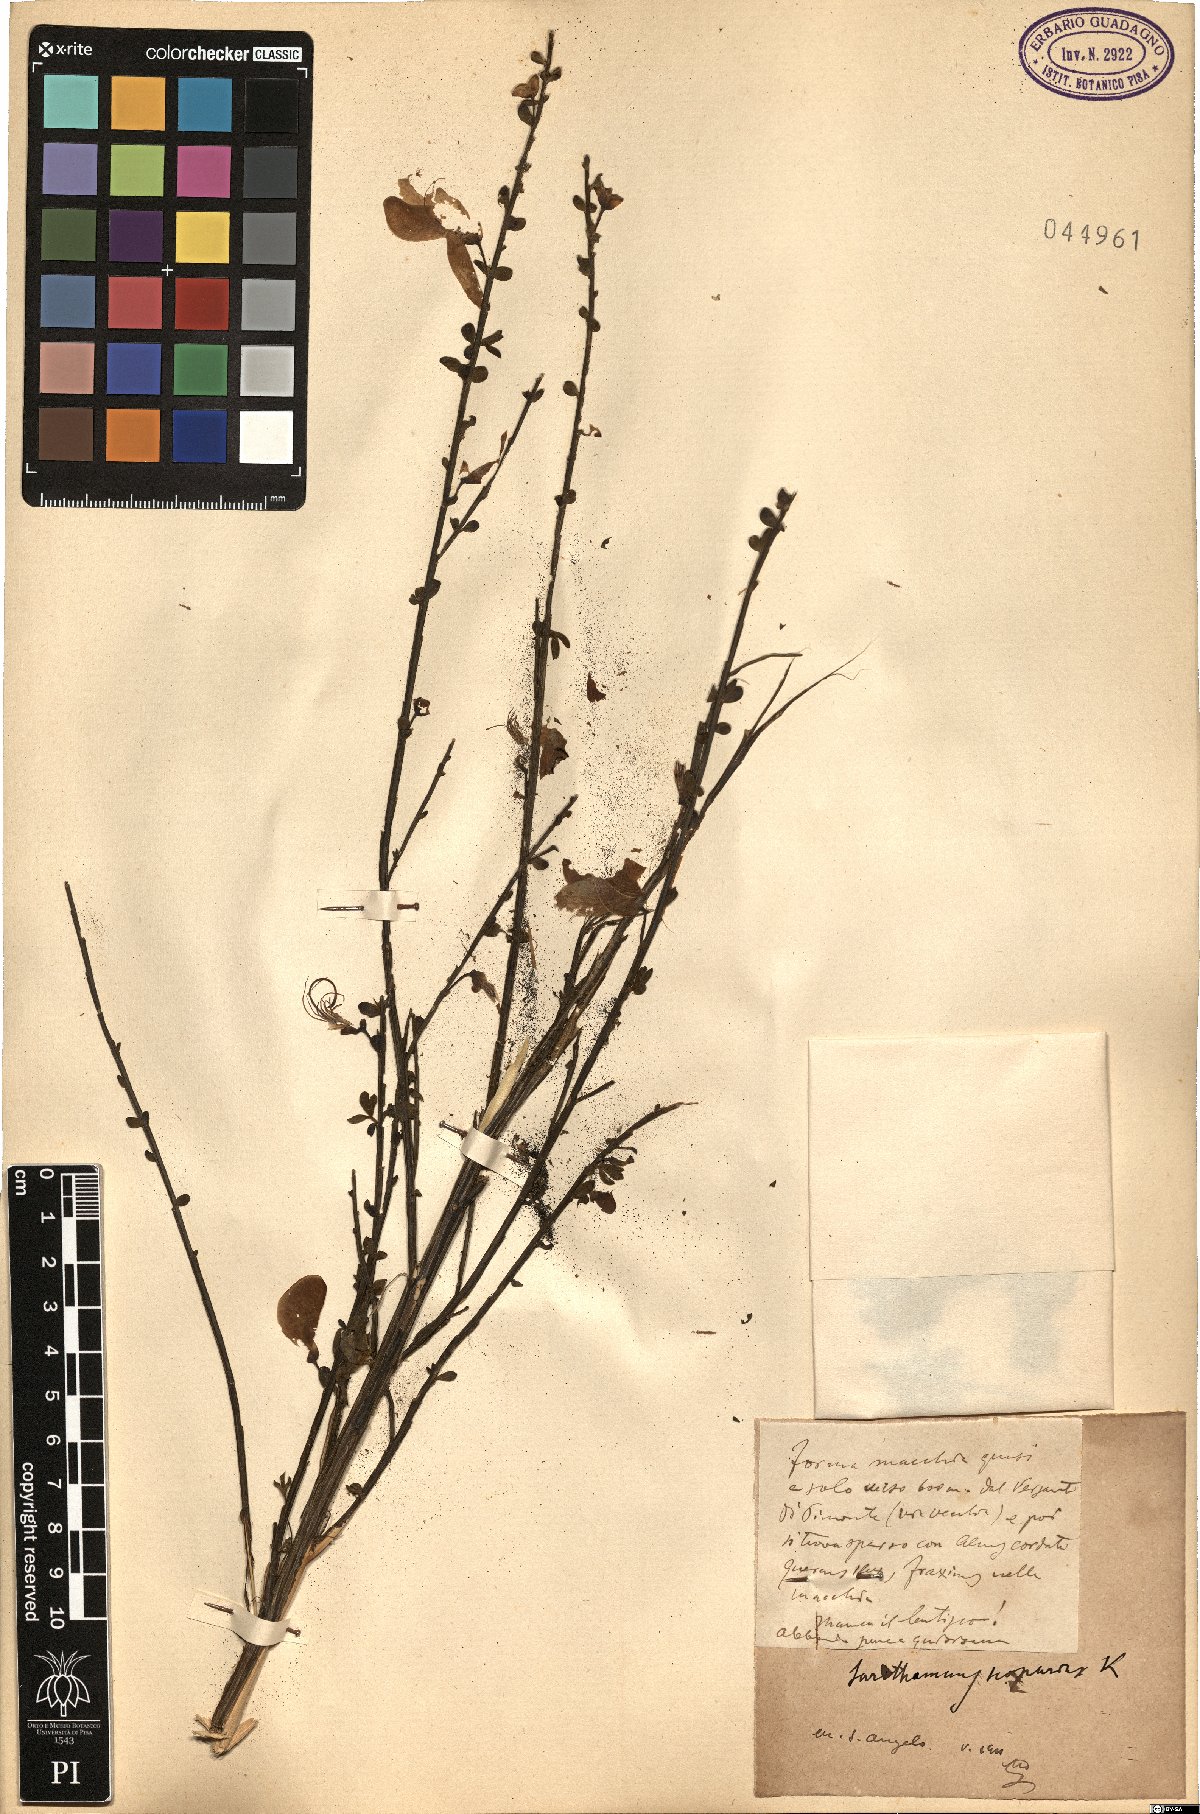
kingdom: Plantae
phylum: Tracheophyta
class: Magnoliopsida
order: Fabales
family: Fabaceae
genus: Cytisus
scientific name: Cytisus scoparius
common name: Scotch broom
